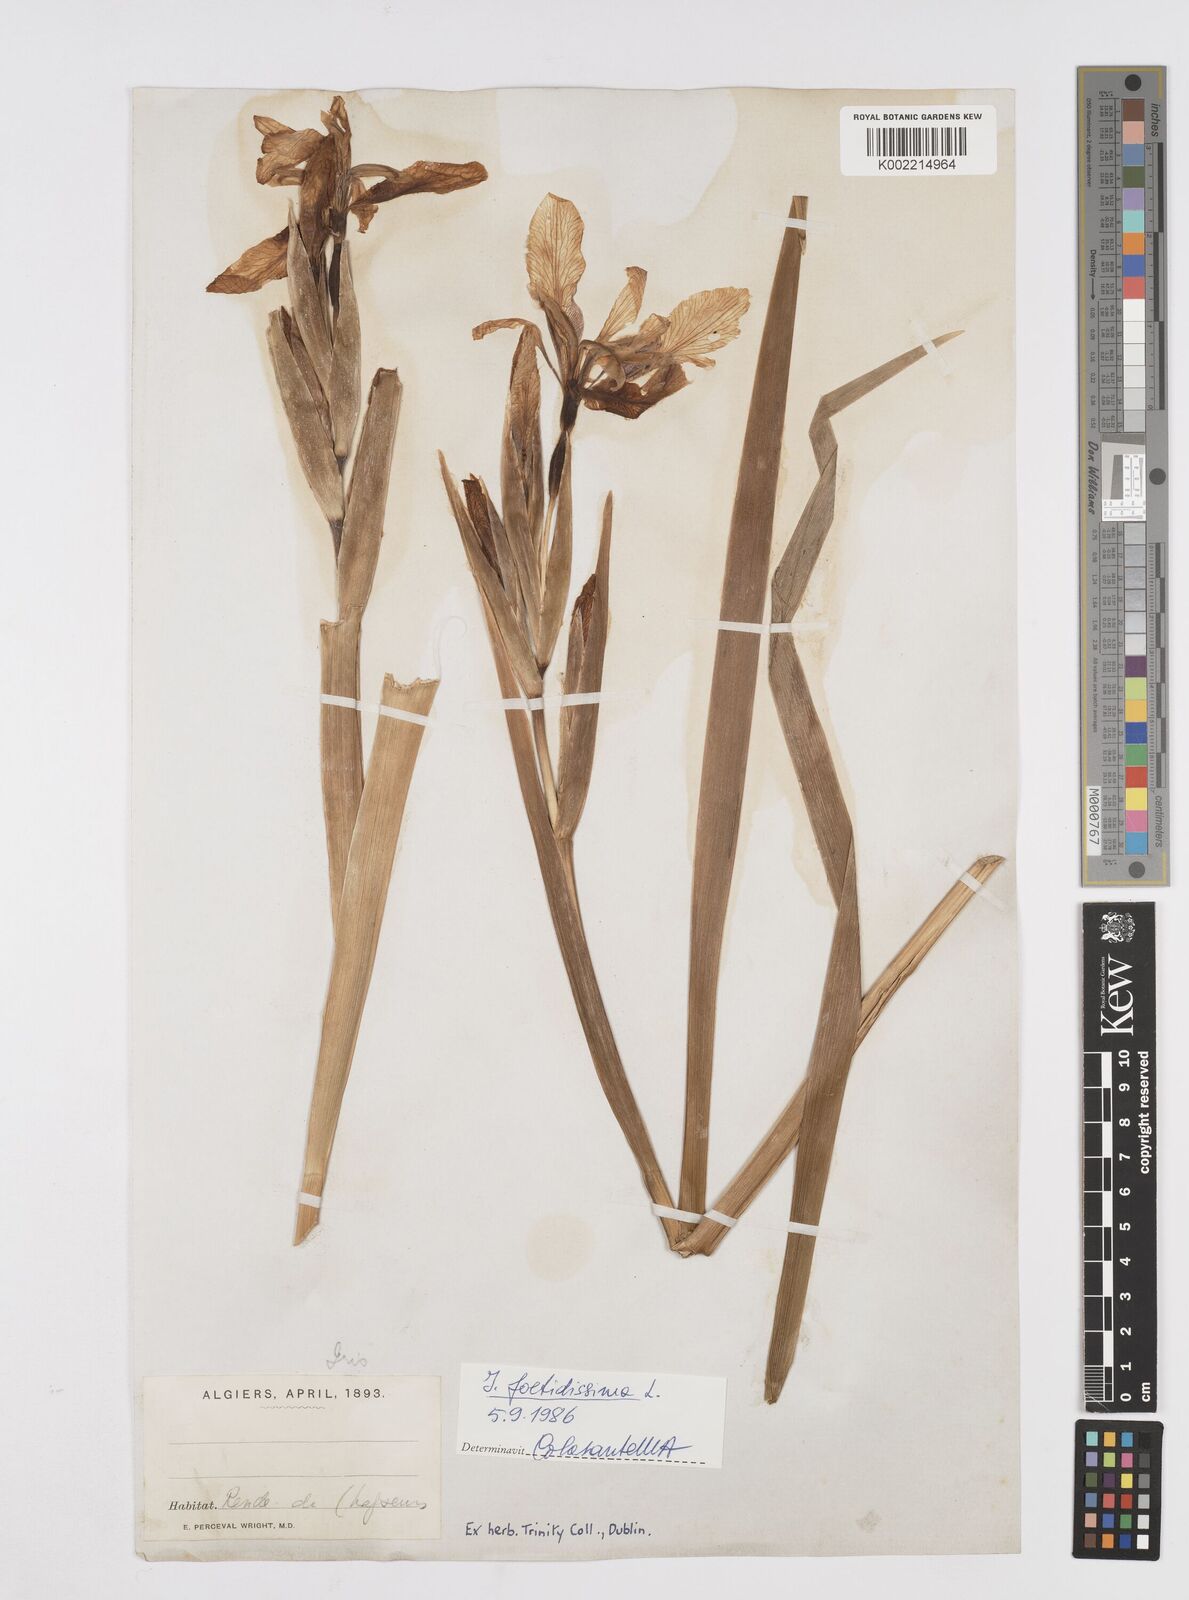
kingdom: Plantae
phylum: Tracheophyta
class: Liliopsida
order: Asparagales
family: Iridaceae
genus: Iris
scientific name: Iris foetidissima
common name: Stinking iris
